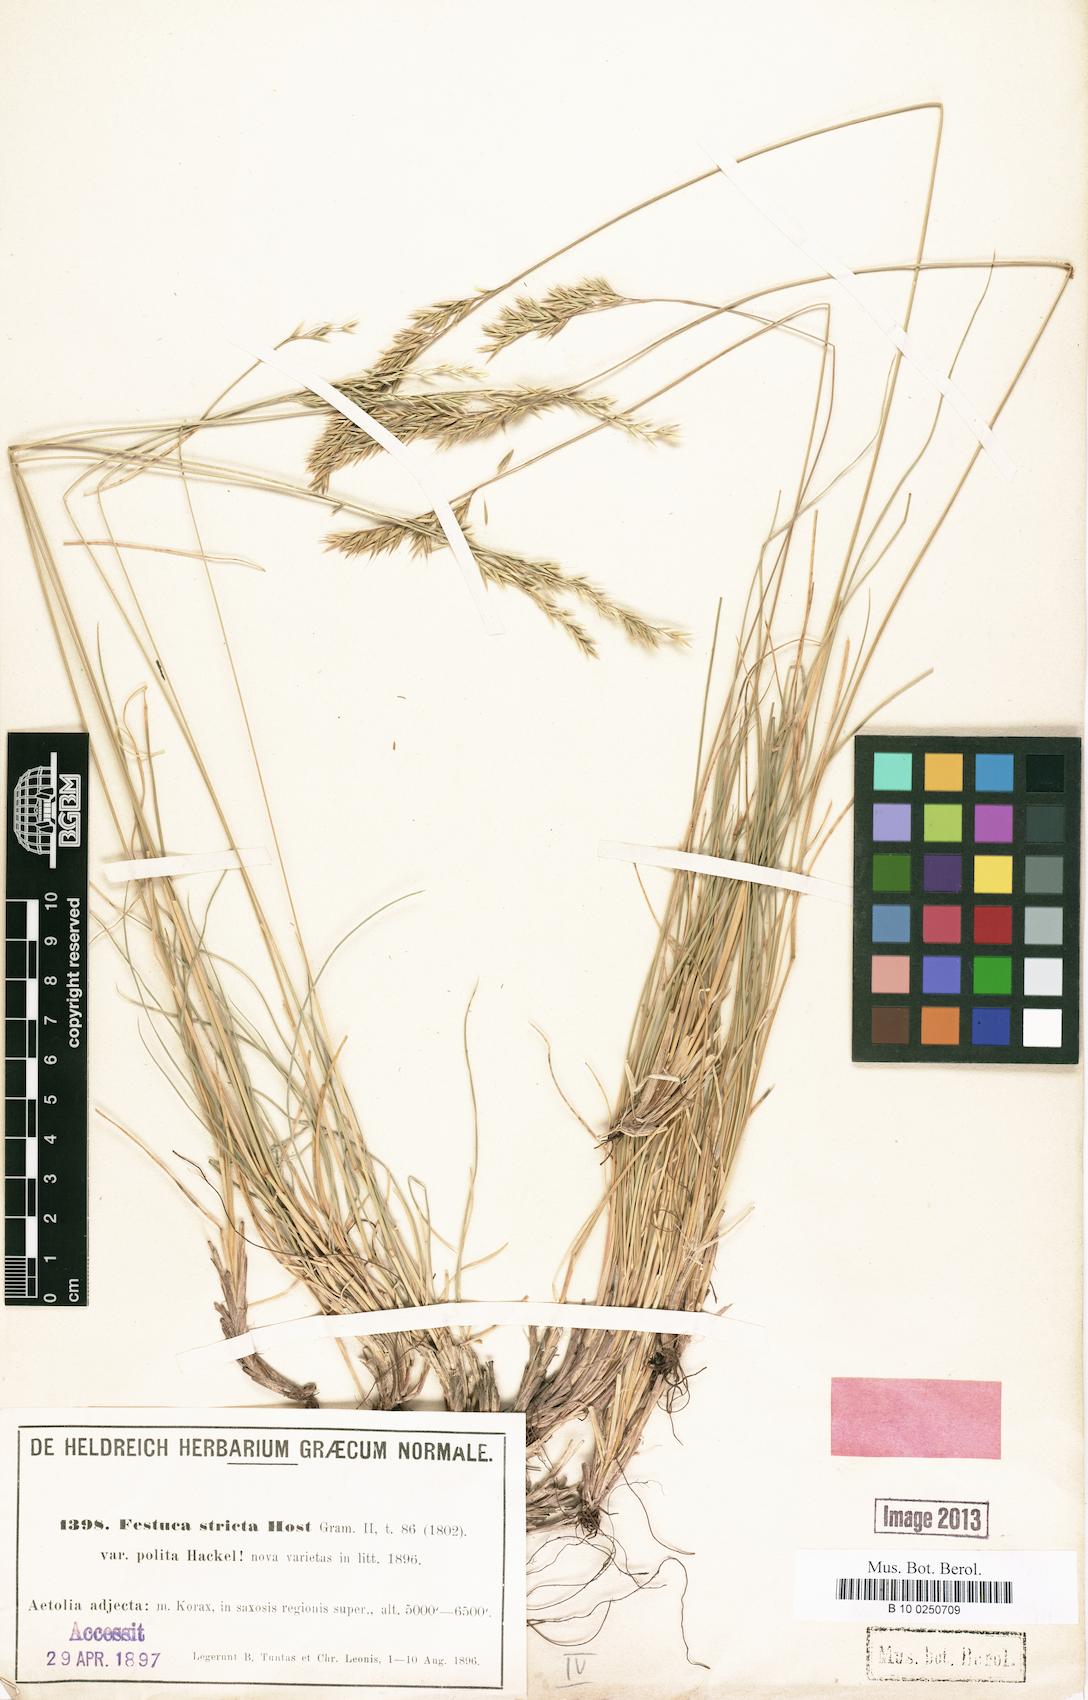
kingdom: Plantae
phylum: Tracheophyta
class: Liliopsida
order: Poales
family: Poaceae
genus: Festuca
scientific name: Festuca polita
